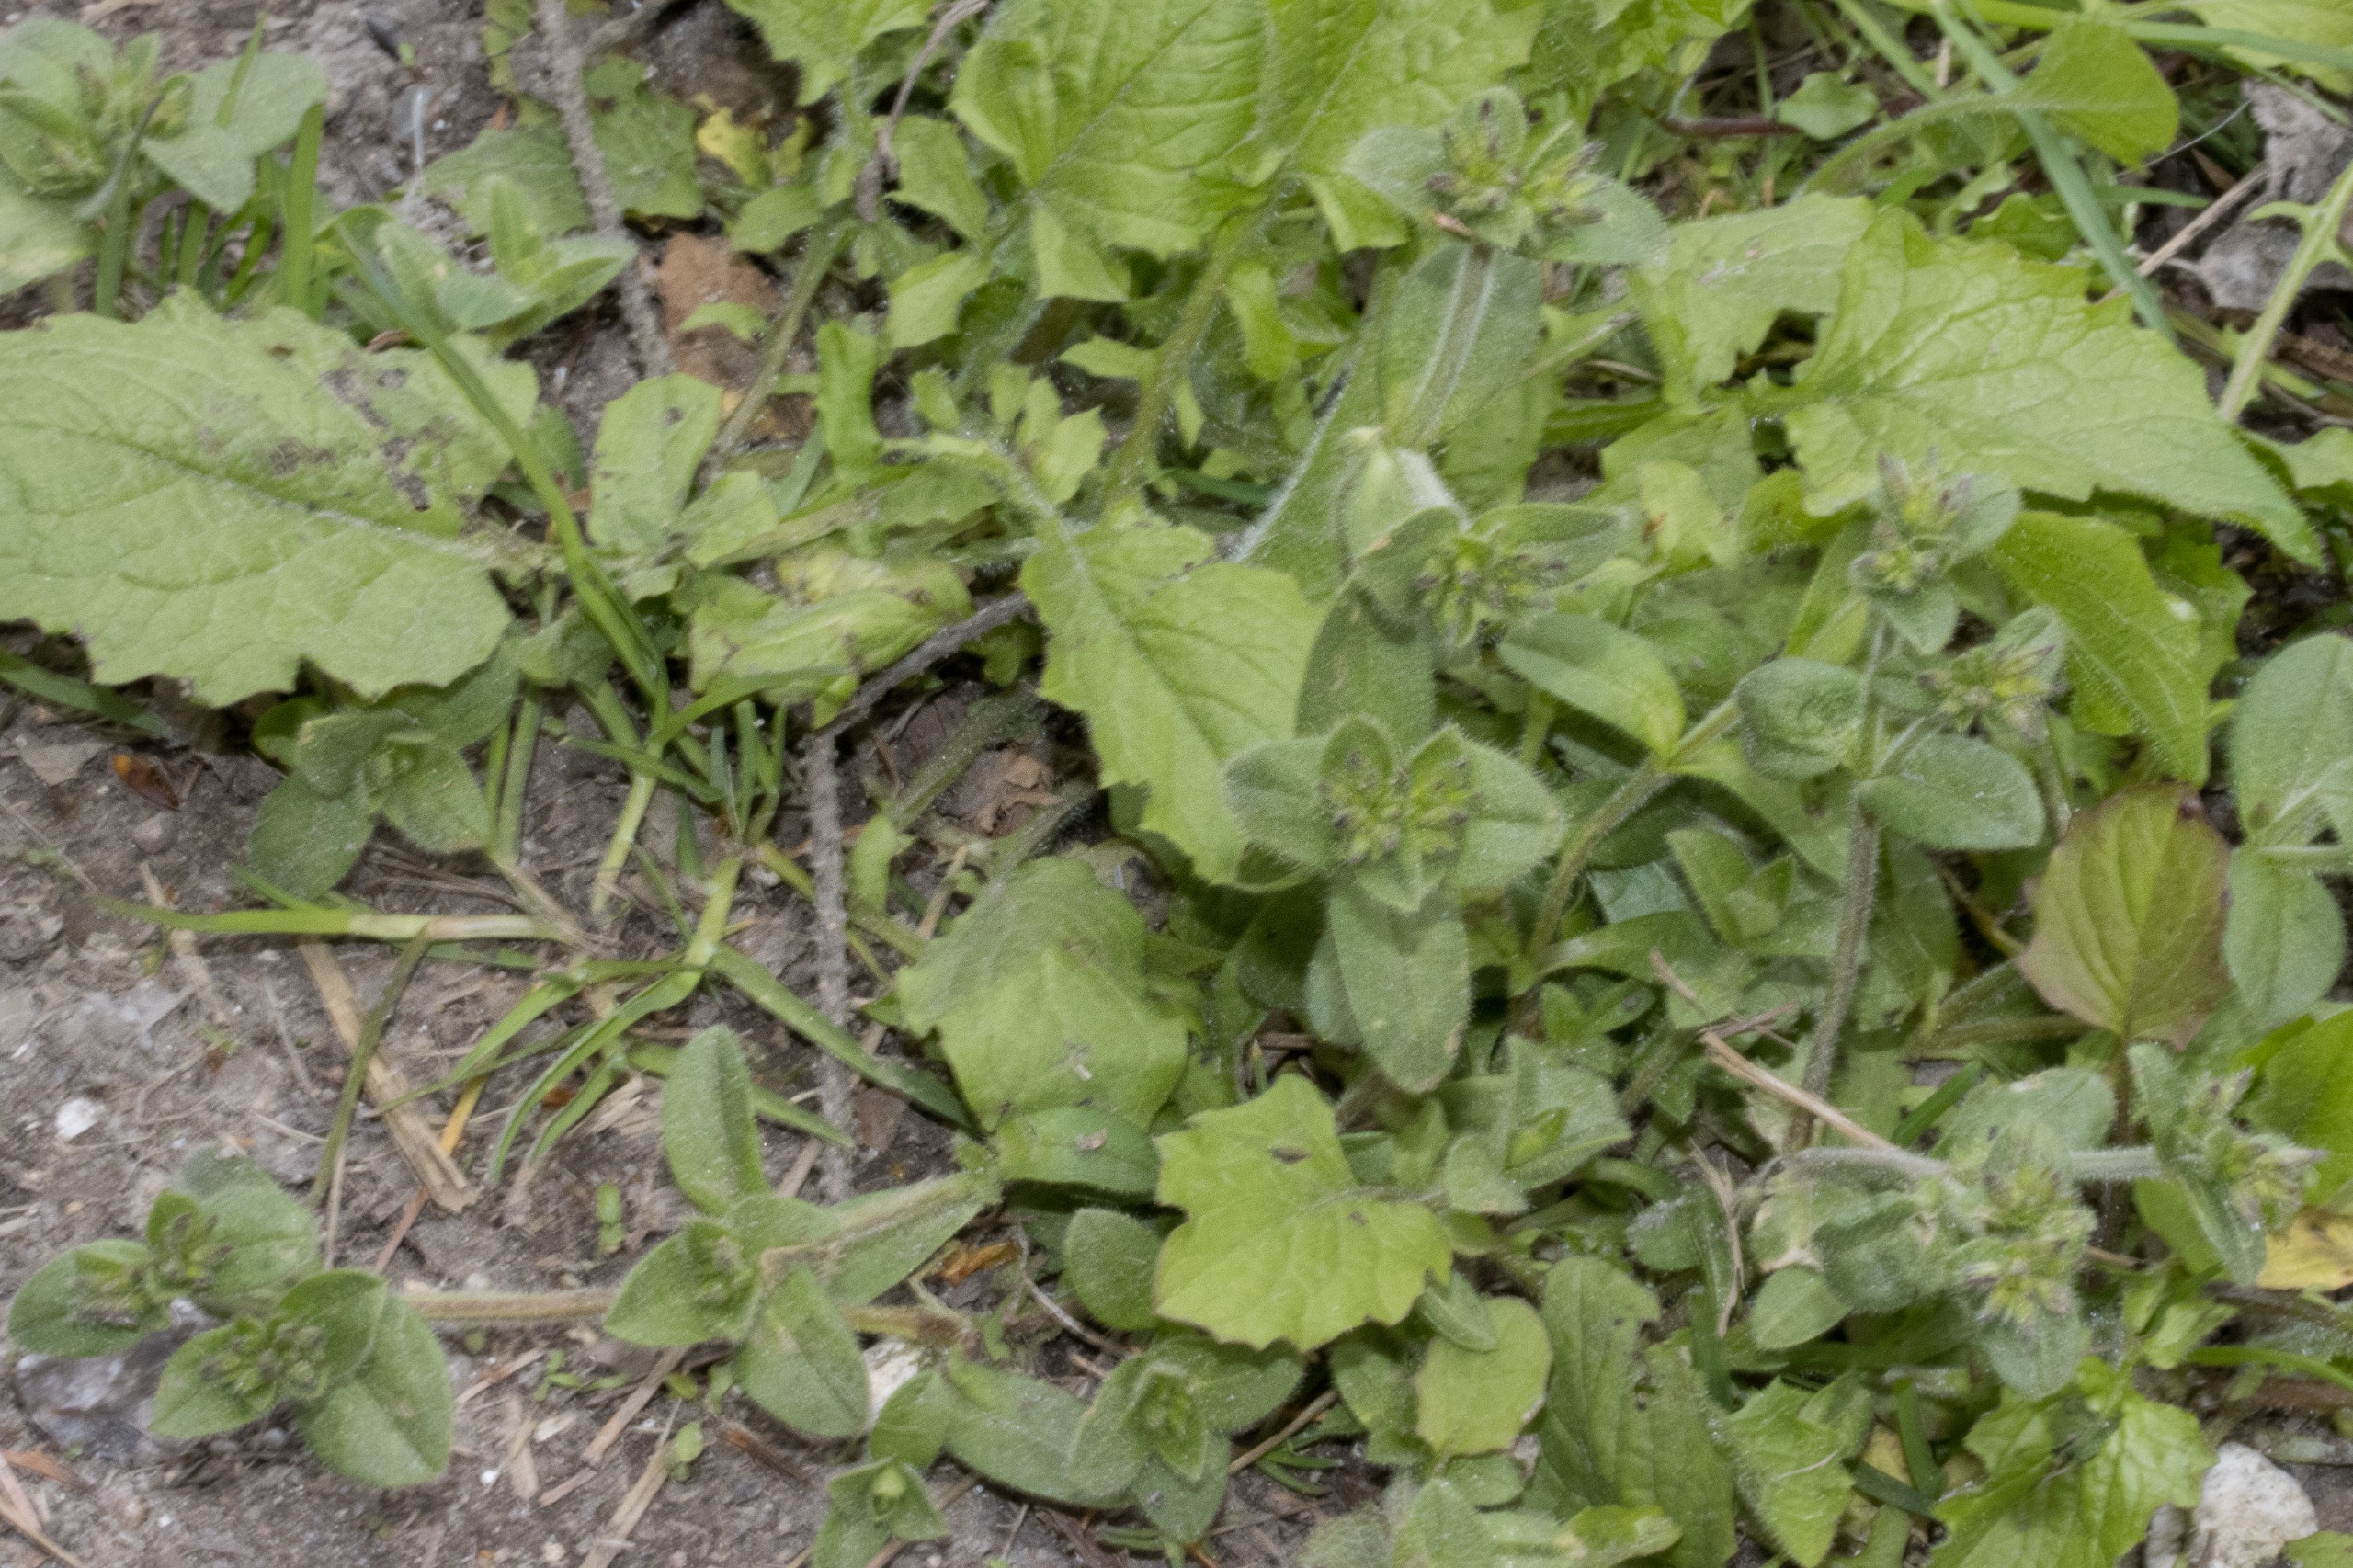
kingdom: Plantae
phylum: Tracheophyta
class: Magnoliopsida
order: Caryophyllales
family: Caryophyllaceae
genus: Cerastium
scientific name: Cerastium glomeratum
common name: Opret hønsetarm
